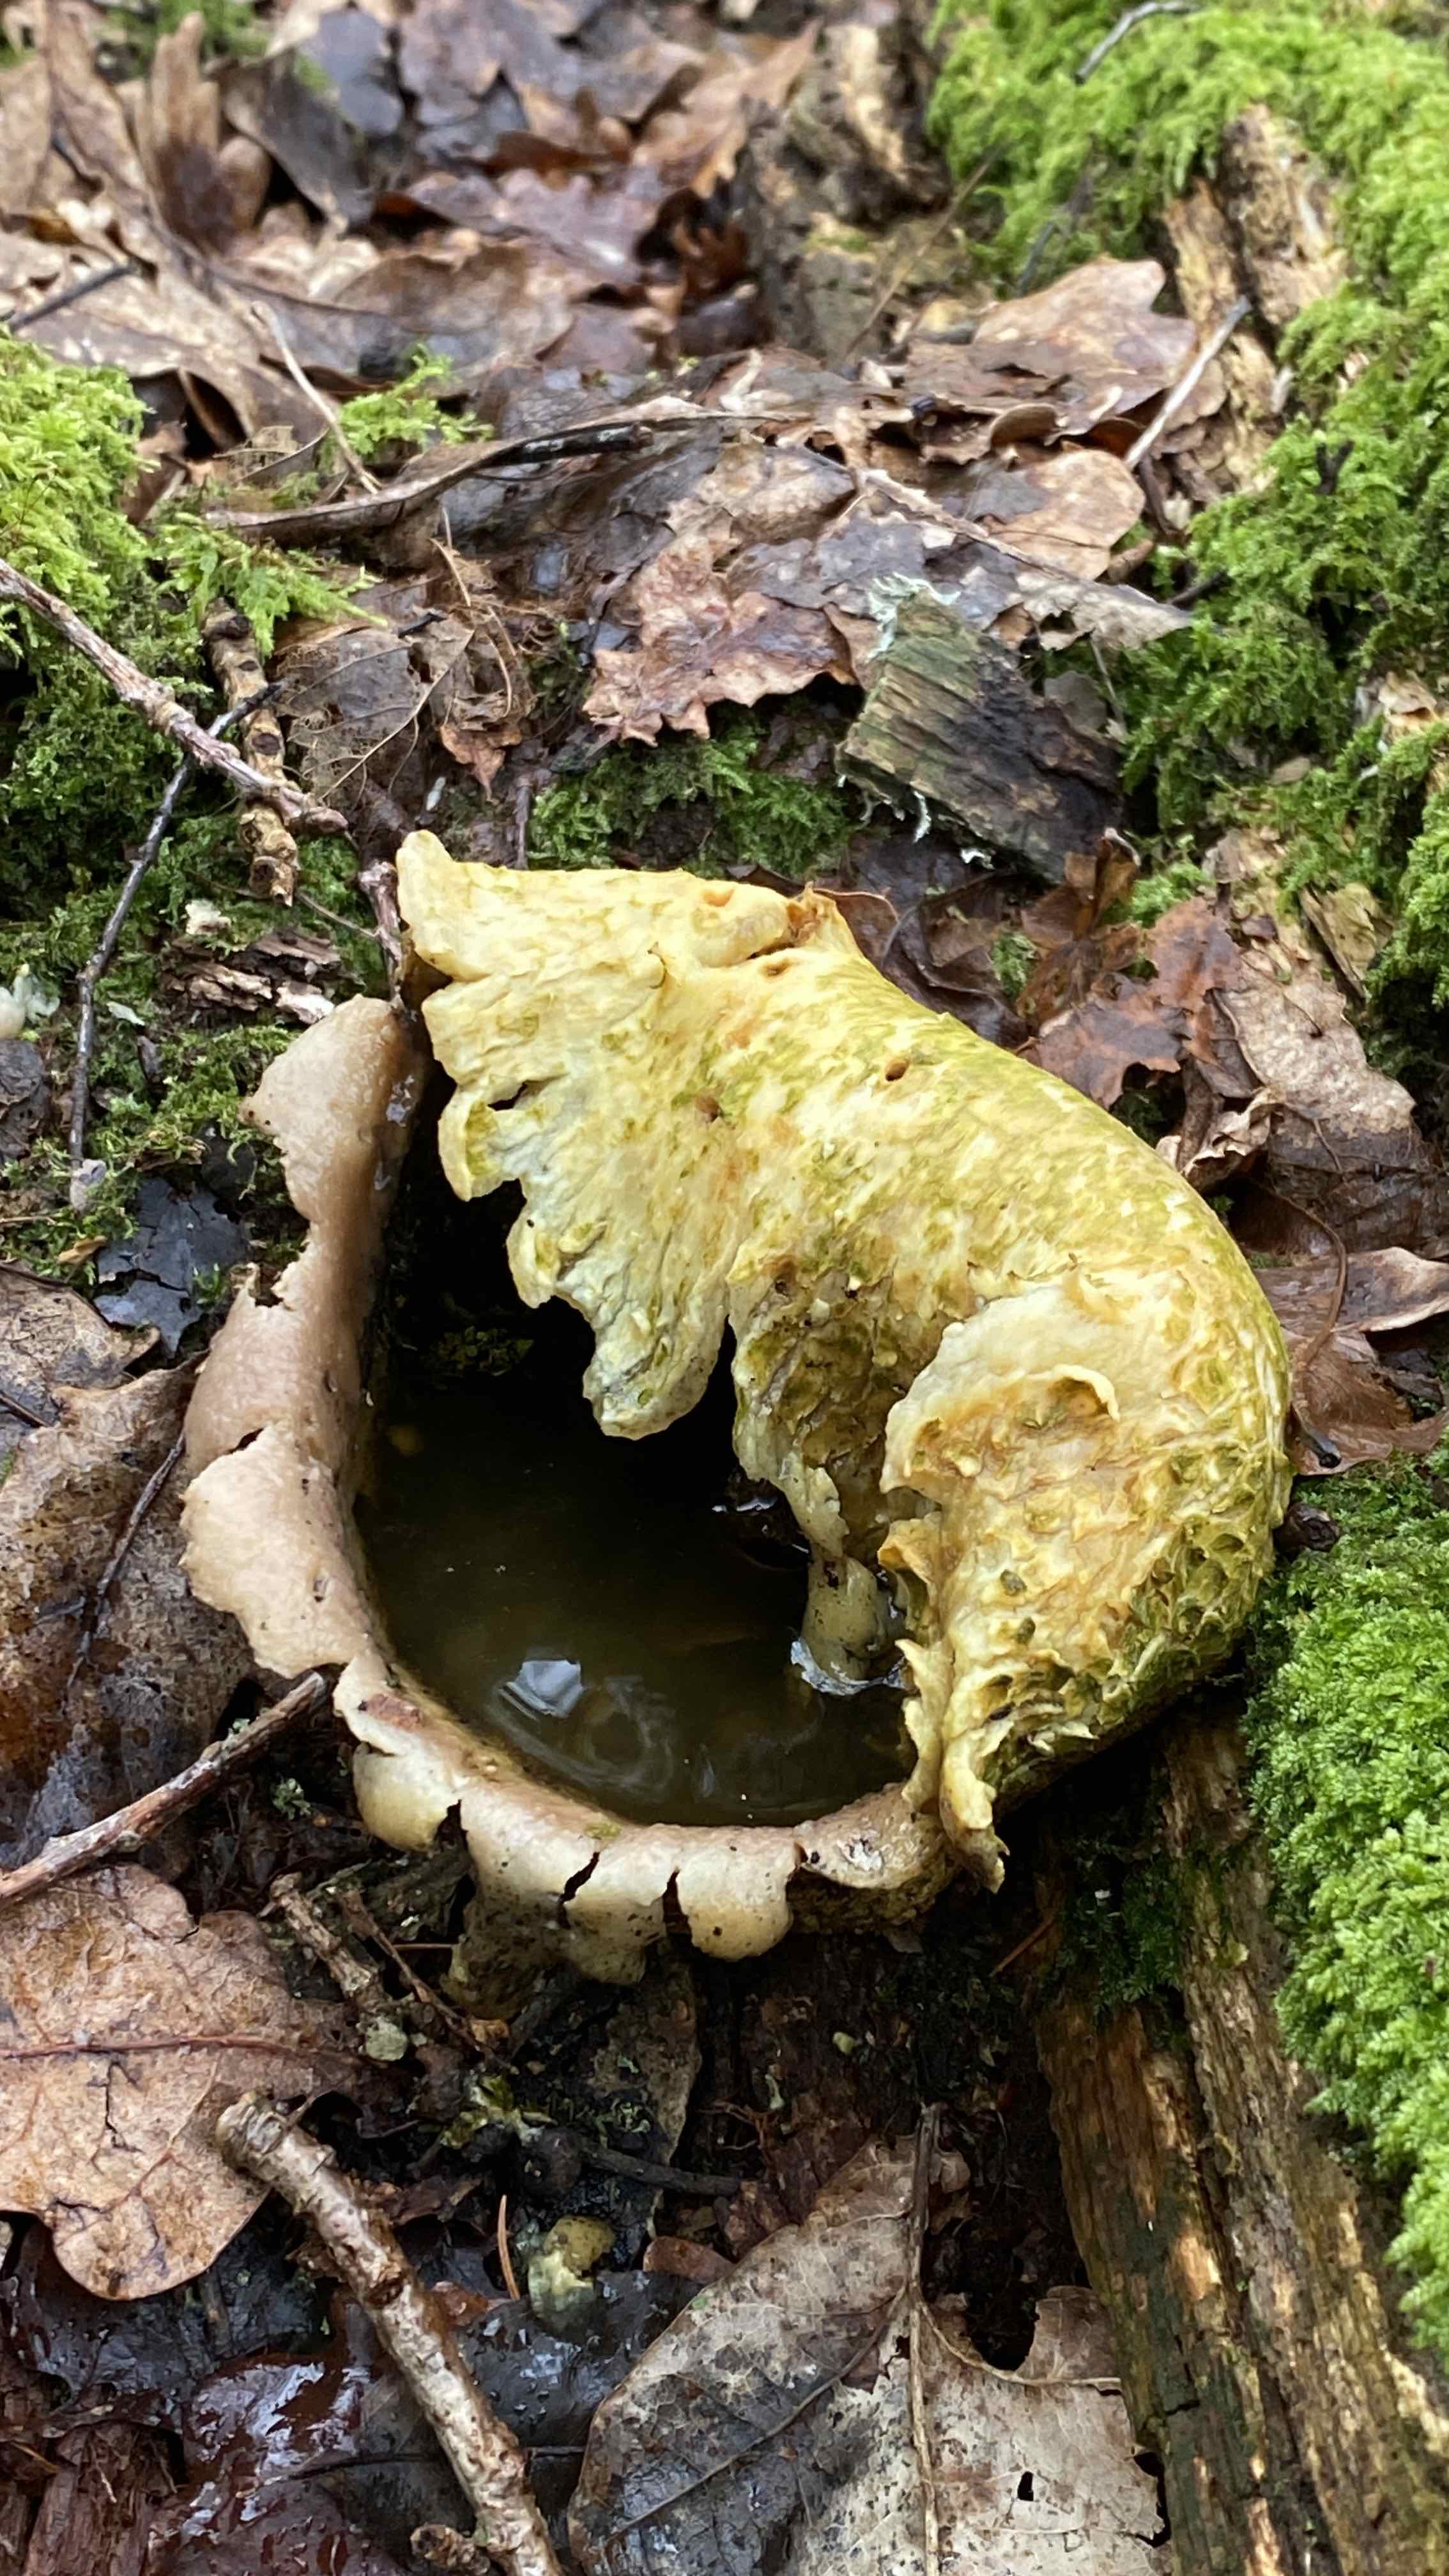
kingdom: Fungi
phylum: Basidiomycota
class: Agaricomycetes
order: Boletales
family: Sclerodermataceae
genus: Scleroderma
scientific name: Scleroderma citrinum
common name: almindelig bruskbold
